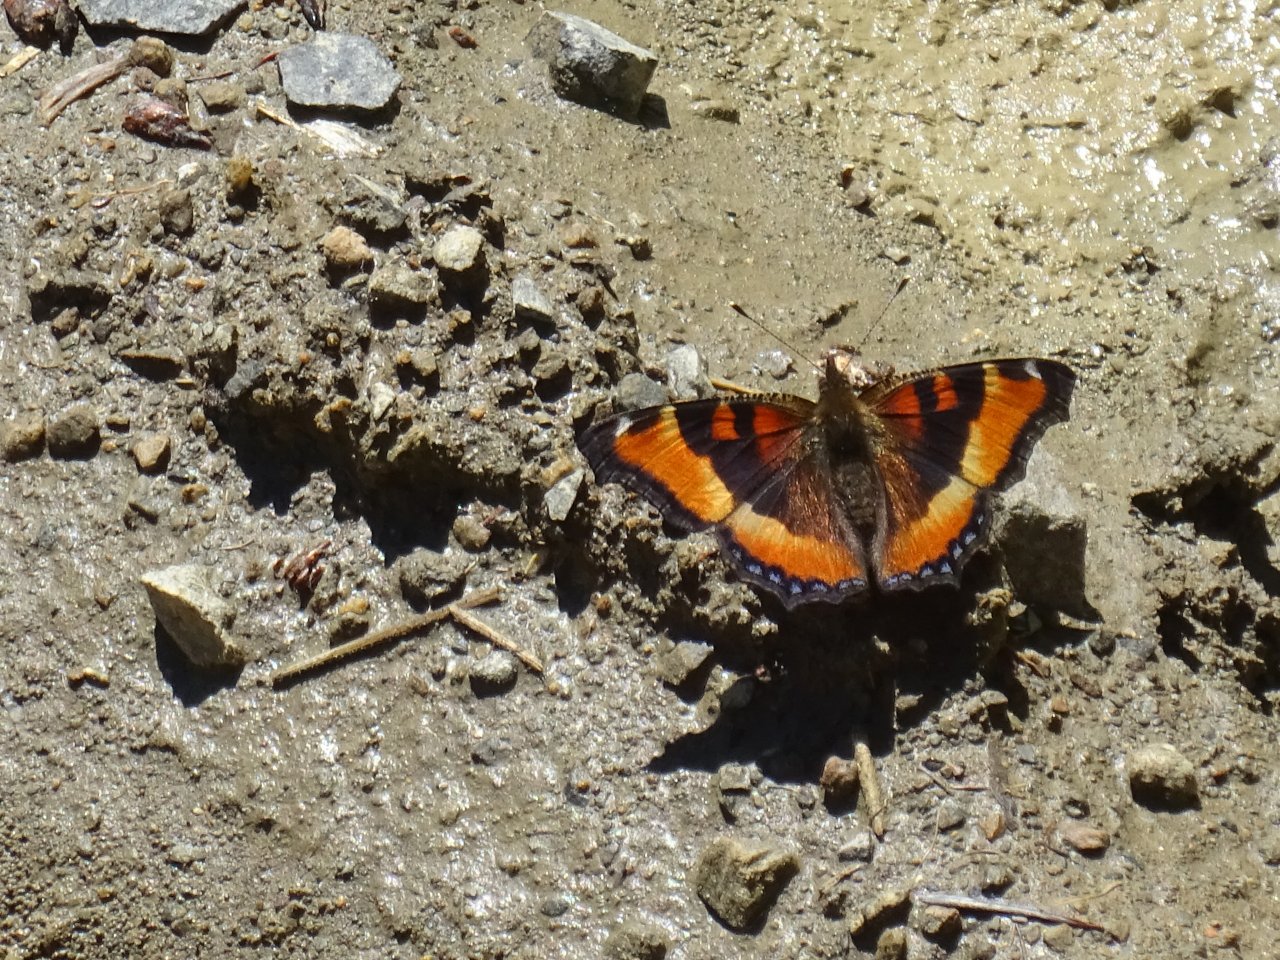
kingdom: Animalia
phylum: Arthropoda
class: Insecta
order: Lepidoptera
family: Nymphalidae
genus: Aglais
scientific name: Aglais milberti
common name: Milbert's Tortoiseshell
